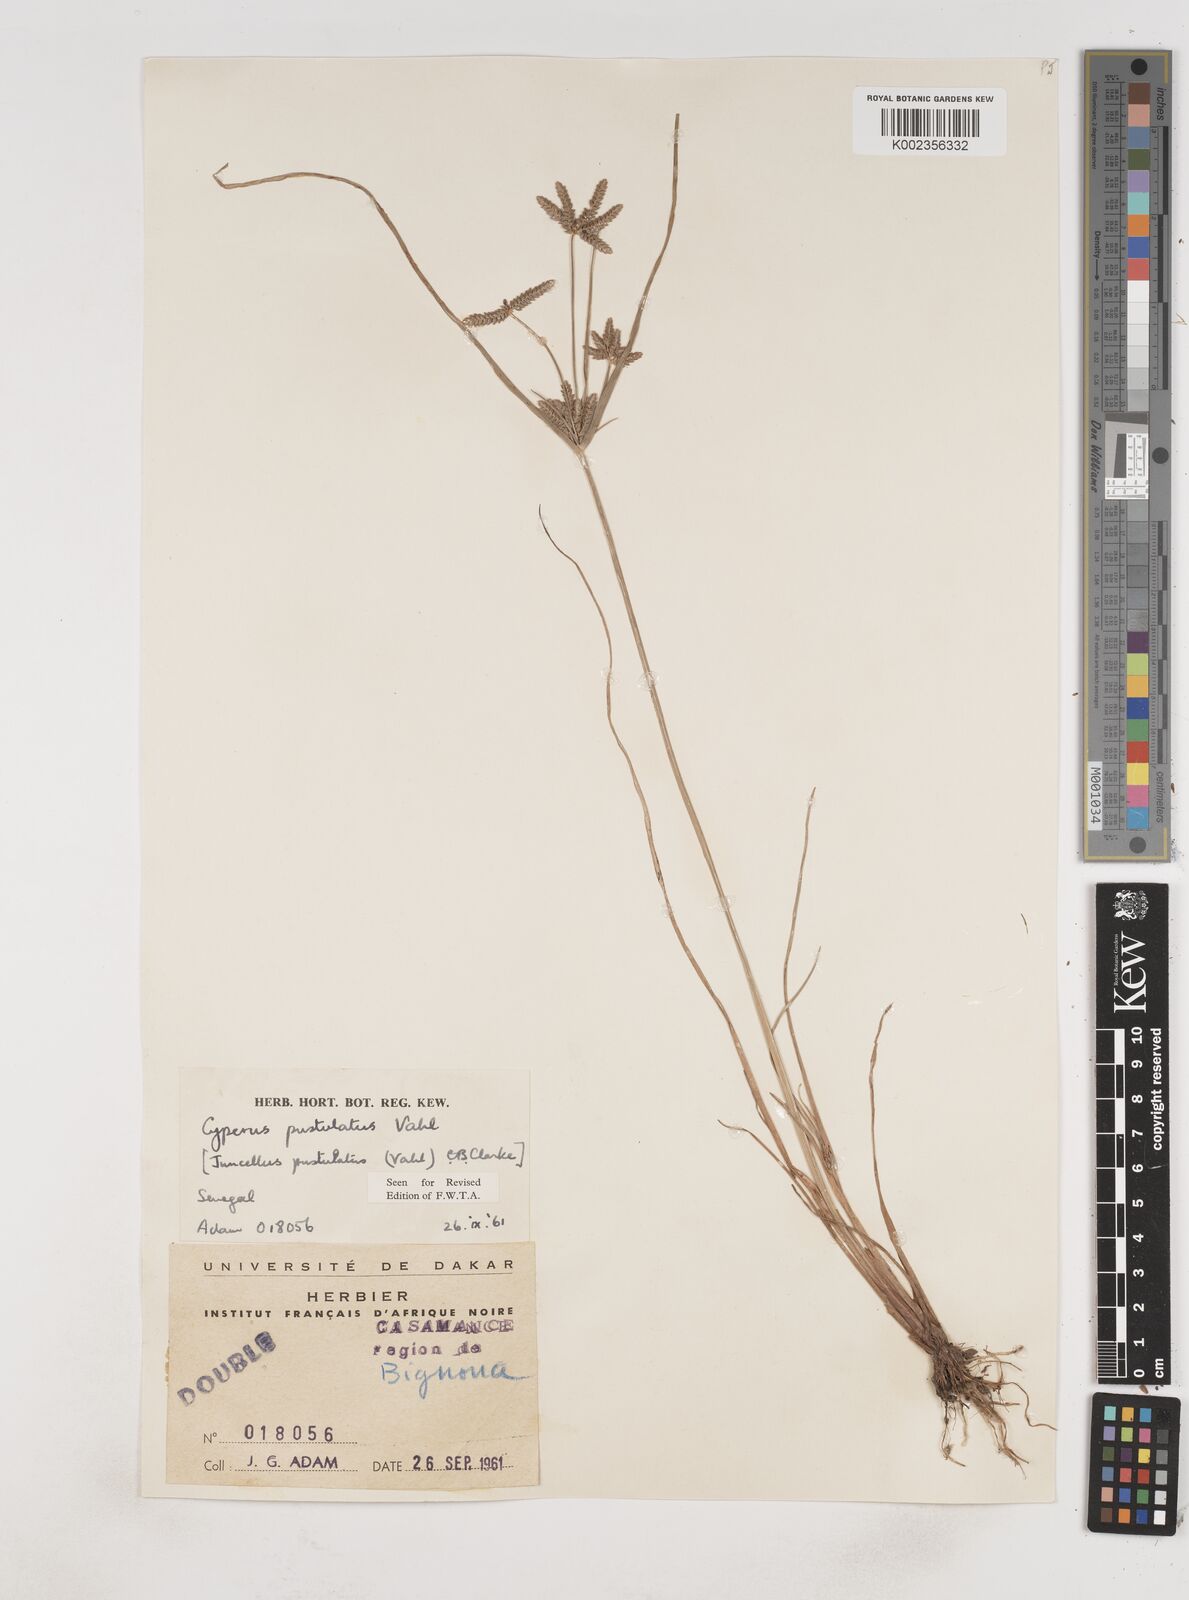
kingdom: Plantae
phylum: Tracheophyta
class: Liliopsida
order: Poales
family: Cyperaceae
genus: Cyperus
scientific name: Cyperus pustulatus
